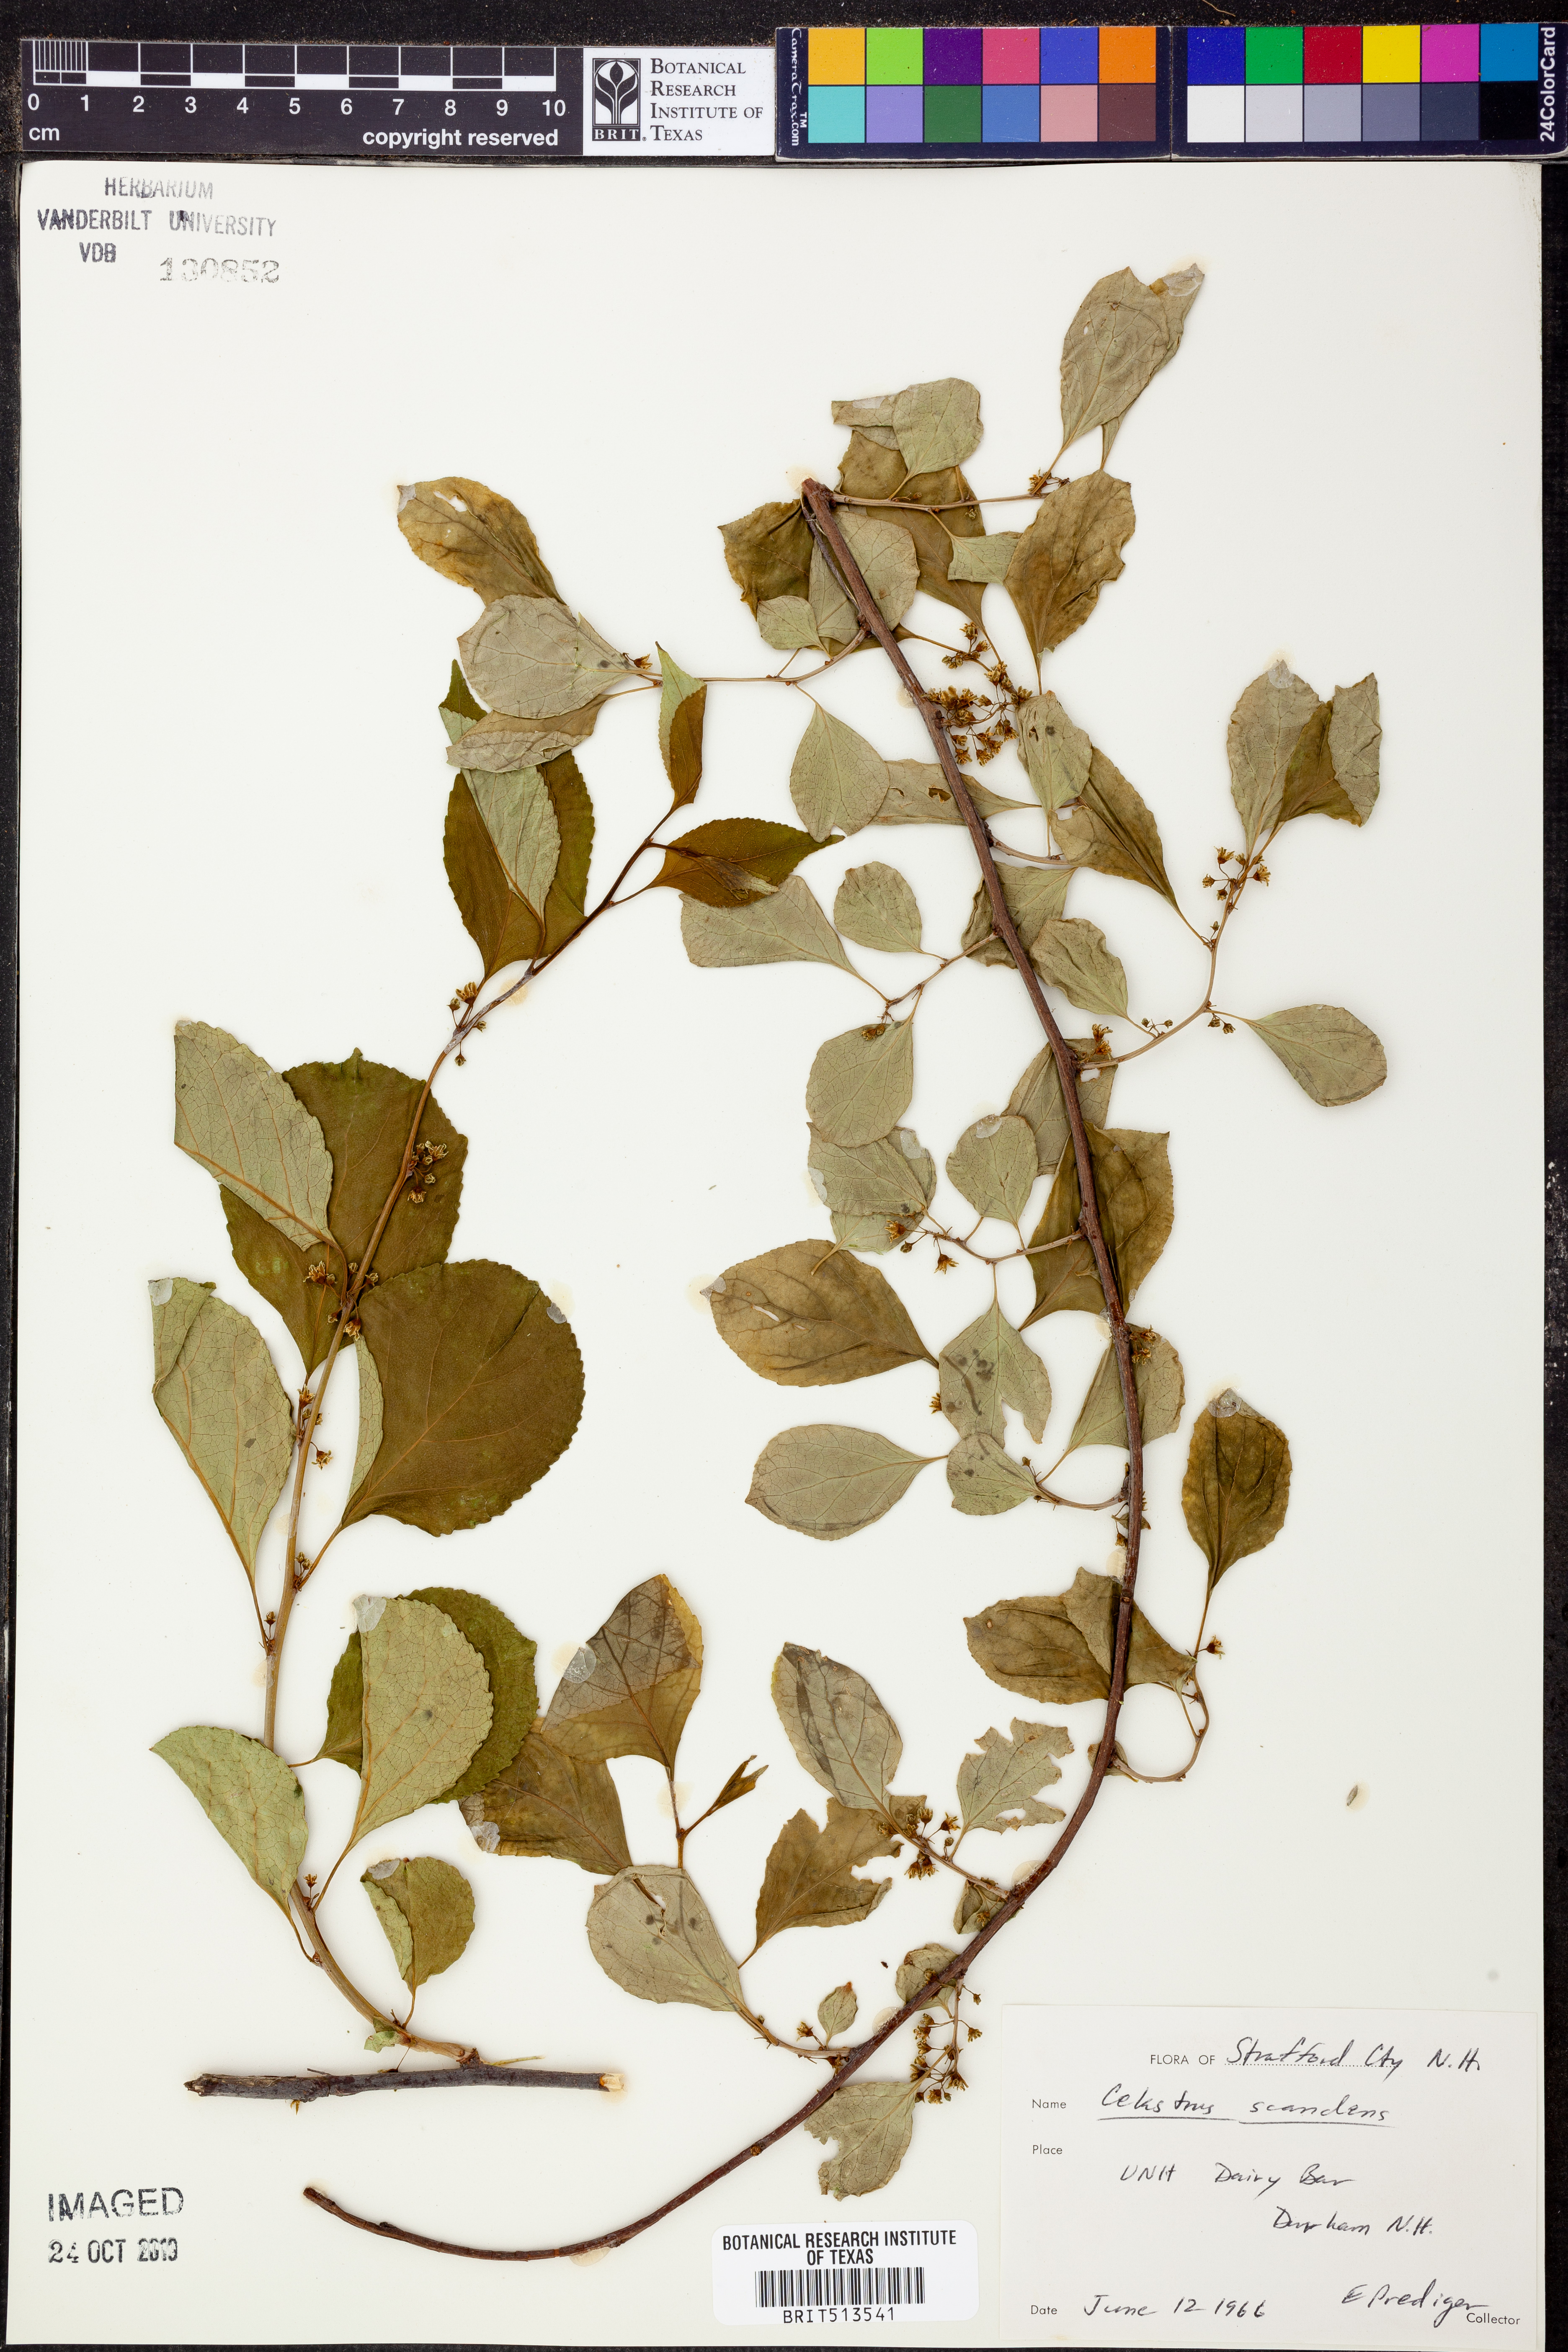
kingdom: Plantae
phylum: Tracheophyta
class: Magnoliopsida
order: Celastrales
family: Celastraceae
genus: Celastrus
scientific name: Celastrus scandens
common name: American bittersweet
